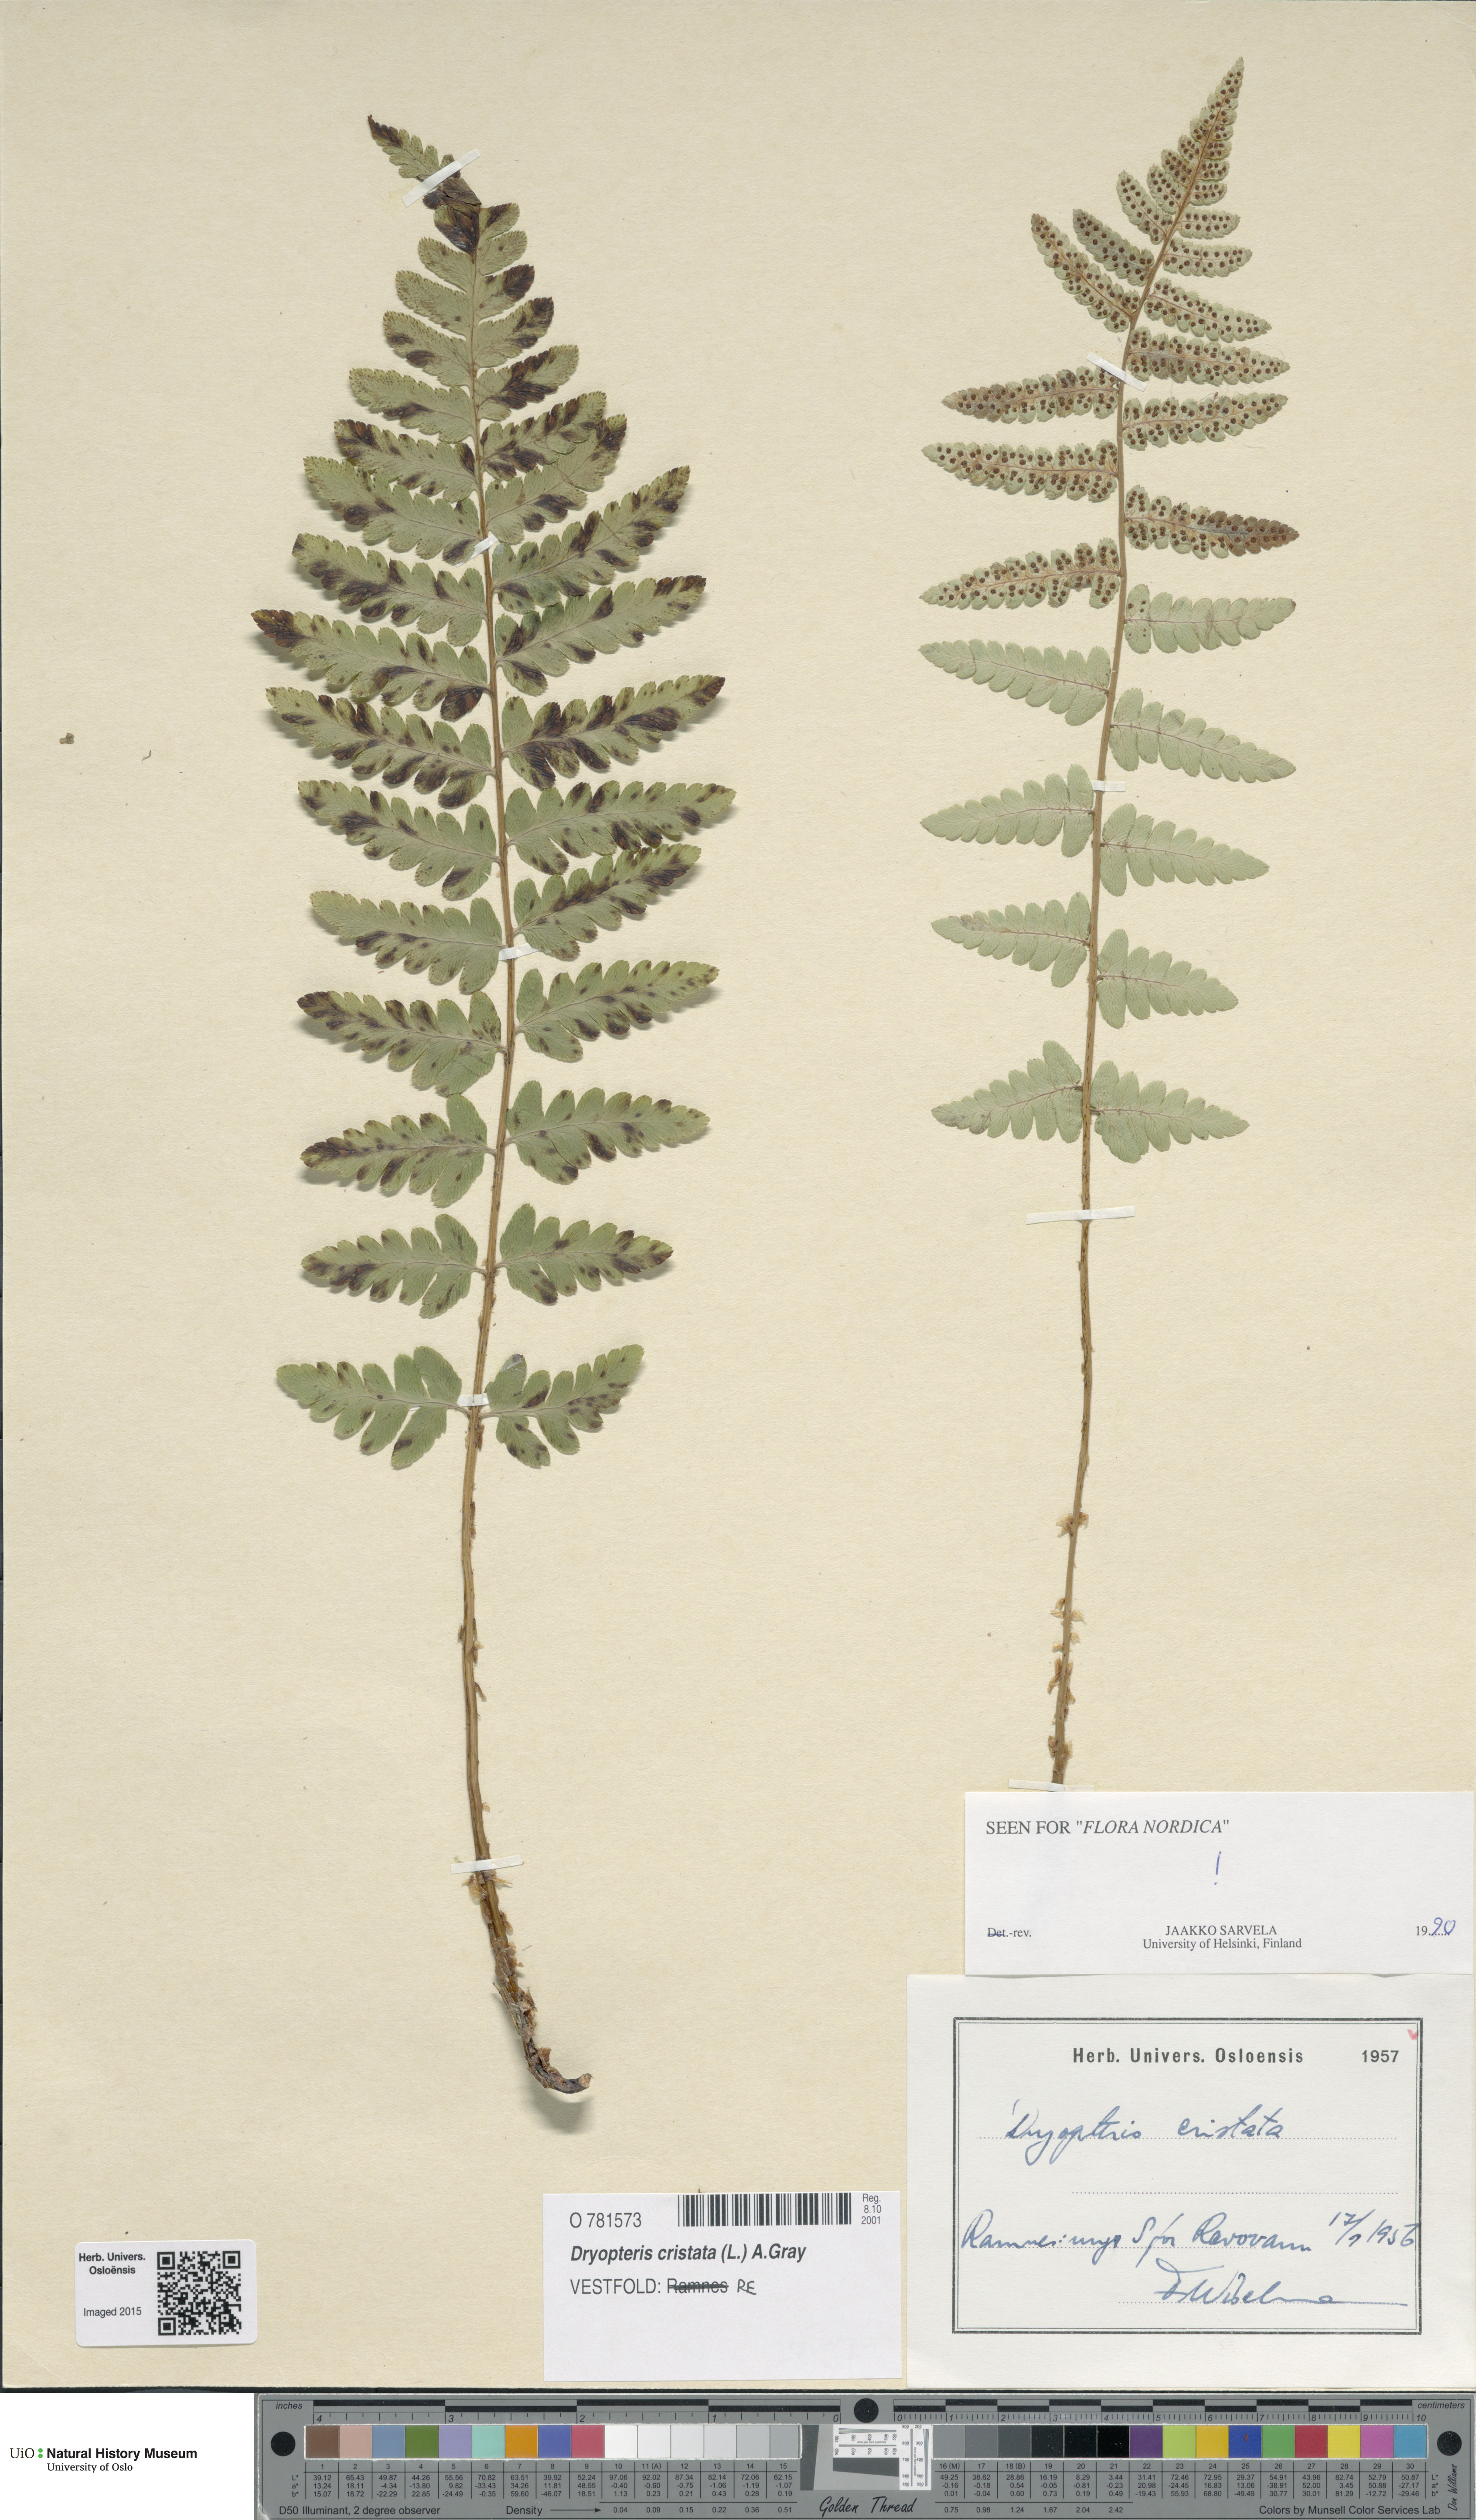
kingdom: Plantae
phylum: Tracheophyta
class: Polypodiopsida
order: Polypodiales
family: Dryopteridaceae
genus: Dryopteris
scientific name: Dryopteris cristata
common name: Crested wood fern
